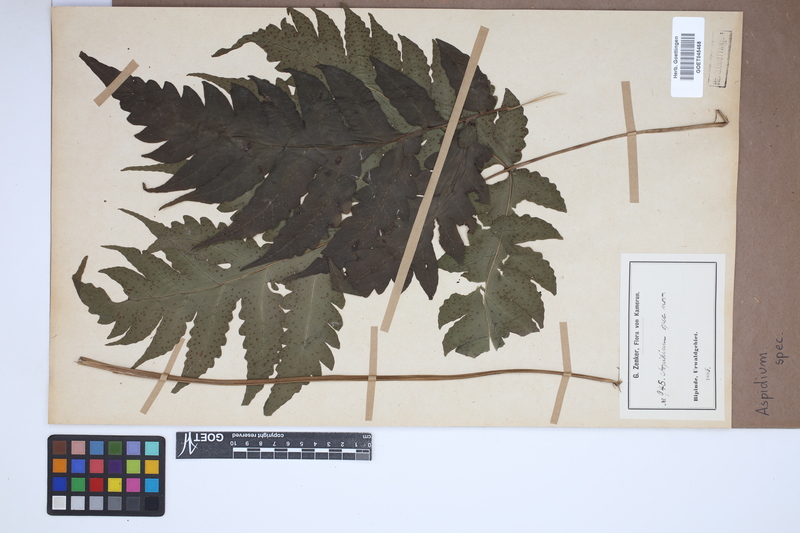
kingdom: Plantae
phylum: Tracheophyta
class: Polypodiopsida
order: Polypodiales
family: Tectariaceae
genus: Tectaria
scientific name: Tectaria Aspidium spec
